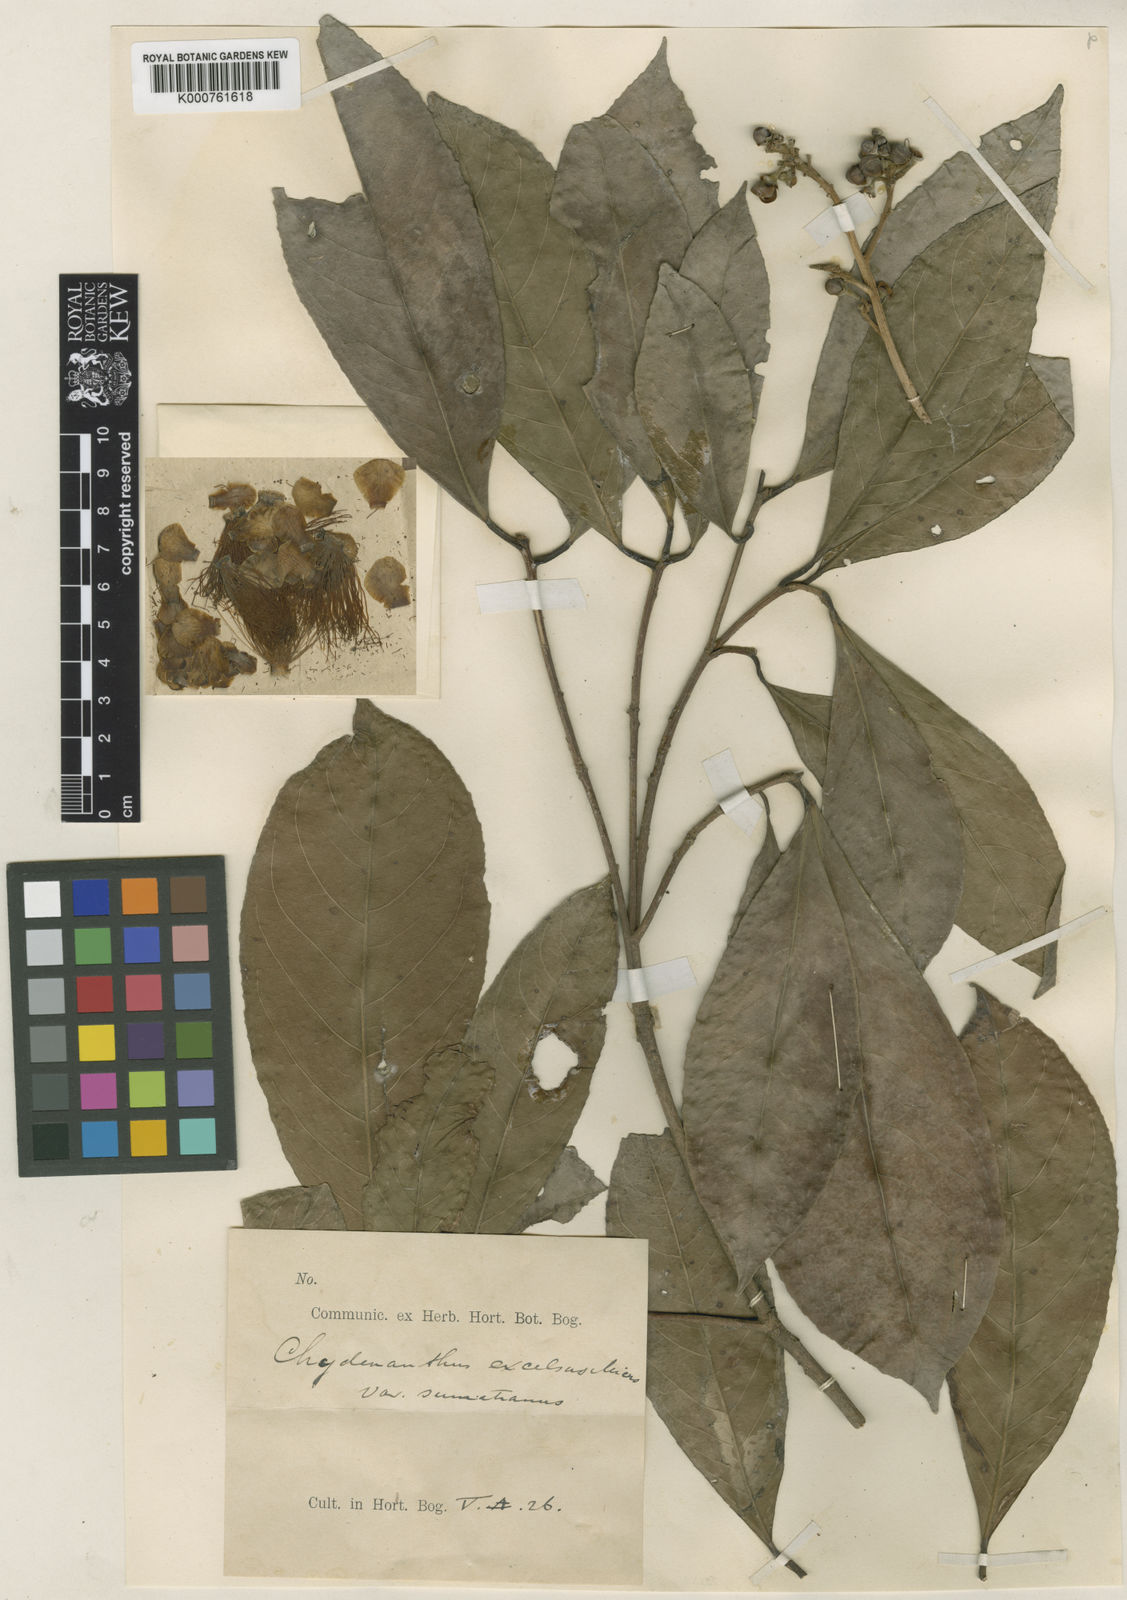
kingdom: Plantae
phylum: Tracheophyta
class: Magnoliopsida
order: Ericales
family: Lecythidaceae
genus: Chydenanthus
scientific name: Chydenanthus excelsus
